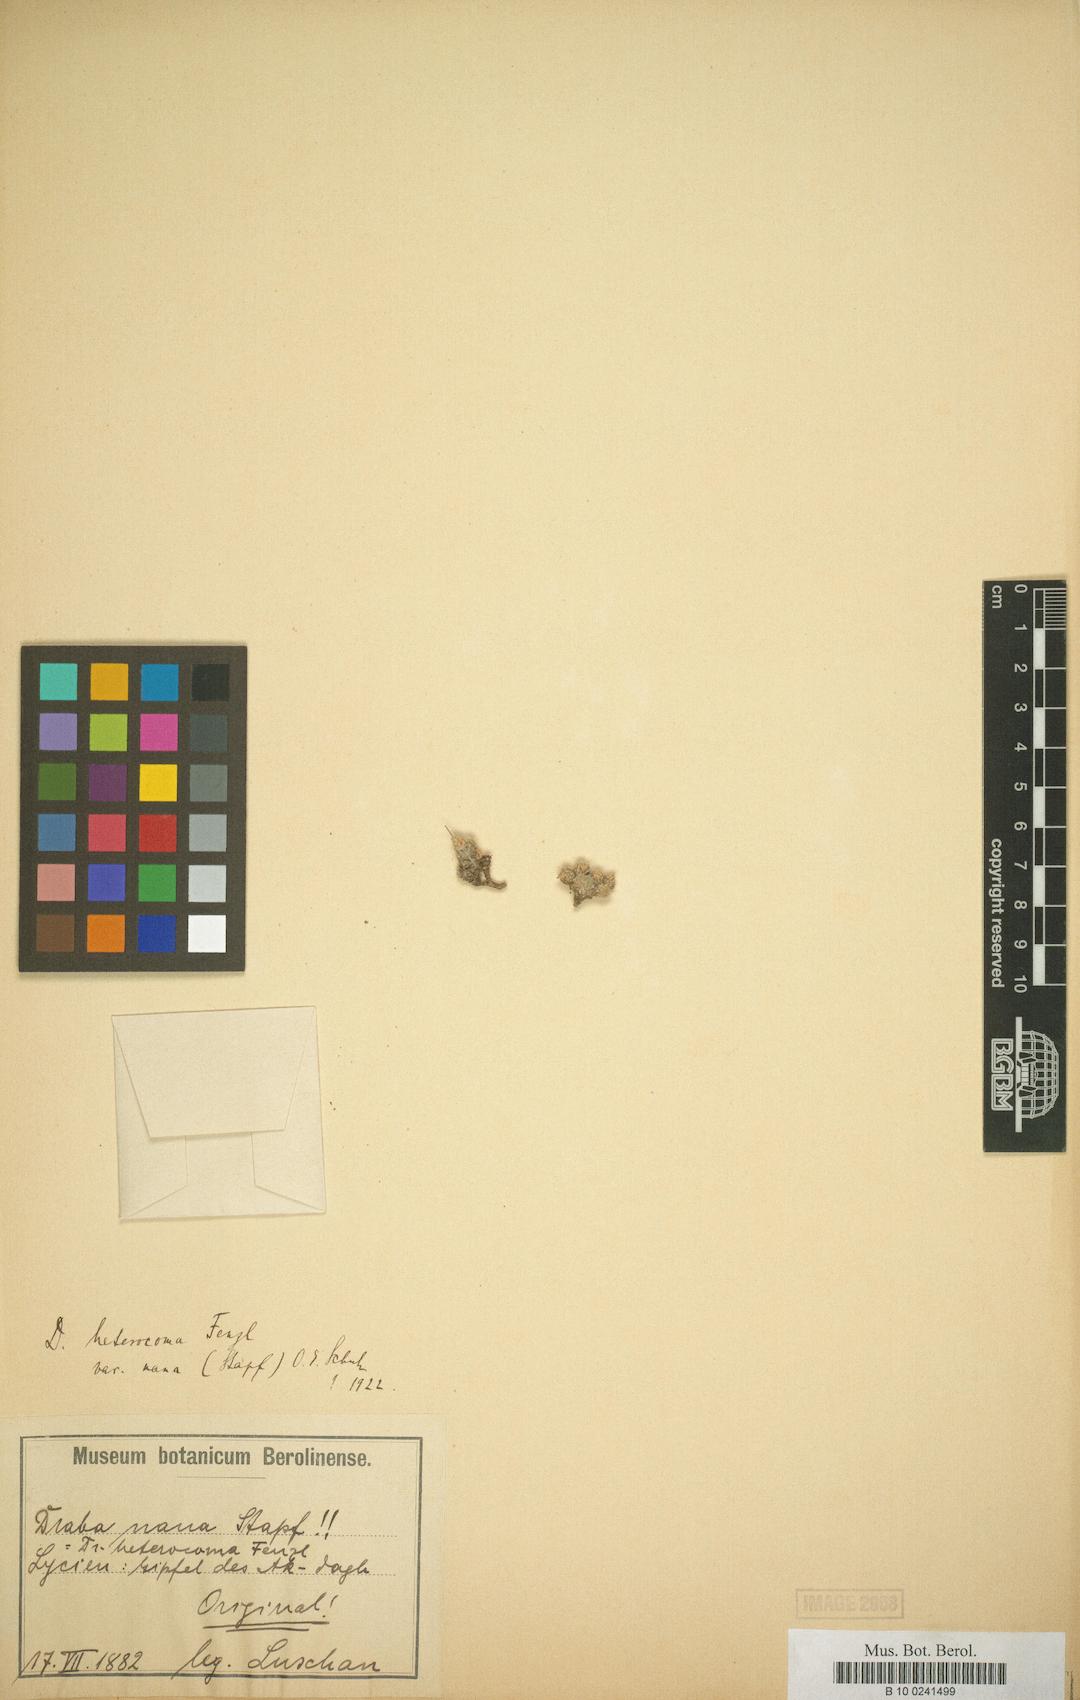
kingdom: Plantae
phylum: Tracheophyta
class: Magnoliopsida
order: Brassicales
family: Brassicaceae
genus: Draba
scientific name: Draba nana
